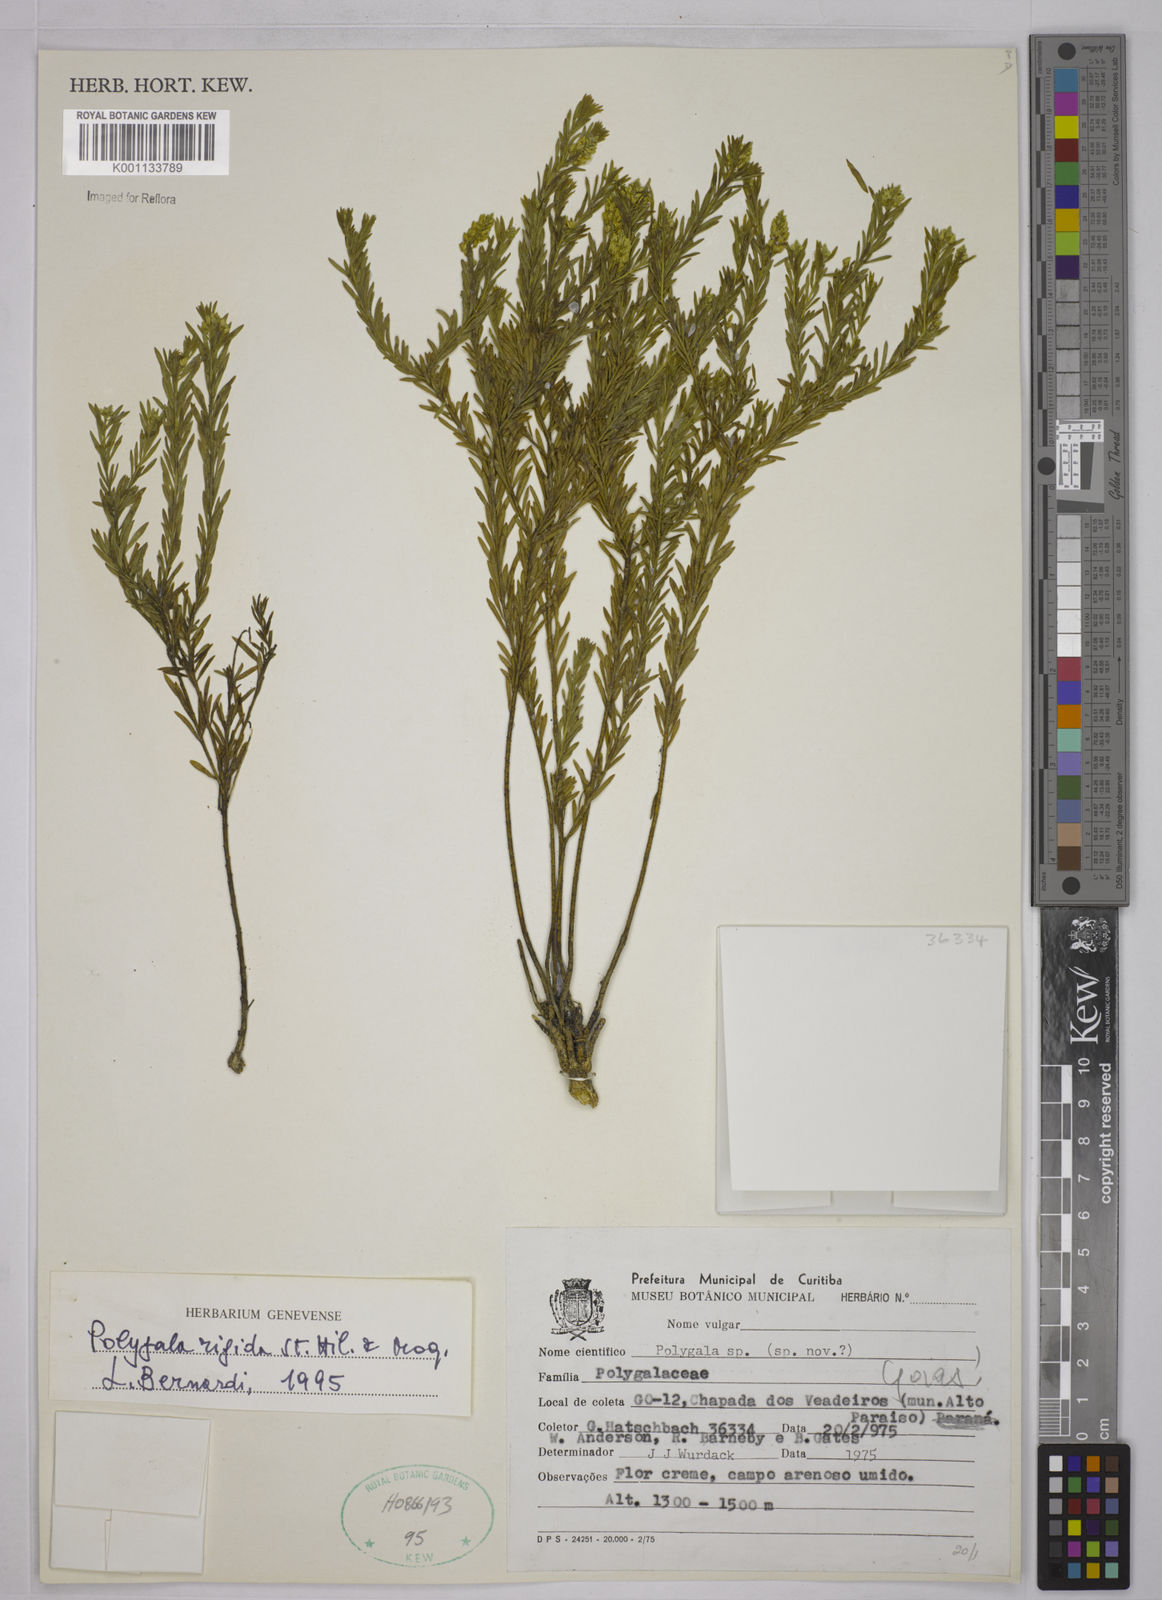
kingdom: Plantae
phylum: Tracheophyta
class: Magnoliopsida
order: Fabales
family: Polygalaceae
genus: Polygala
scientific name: Polygala judithea
